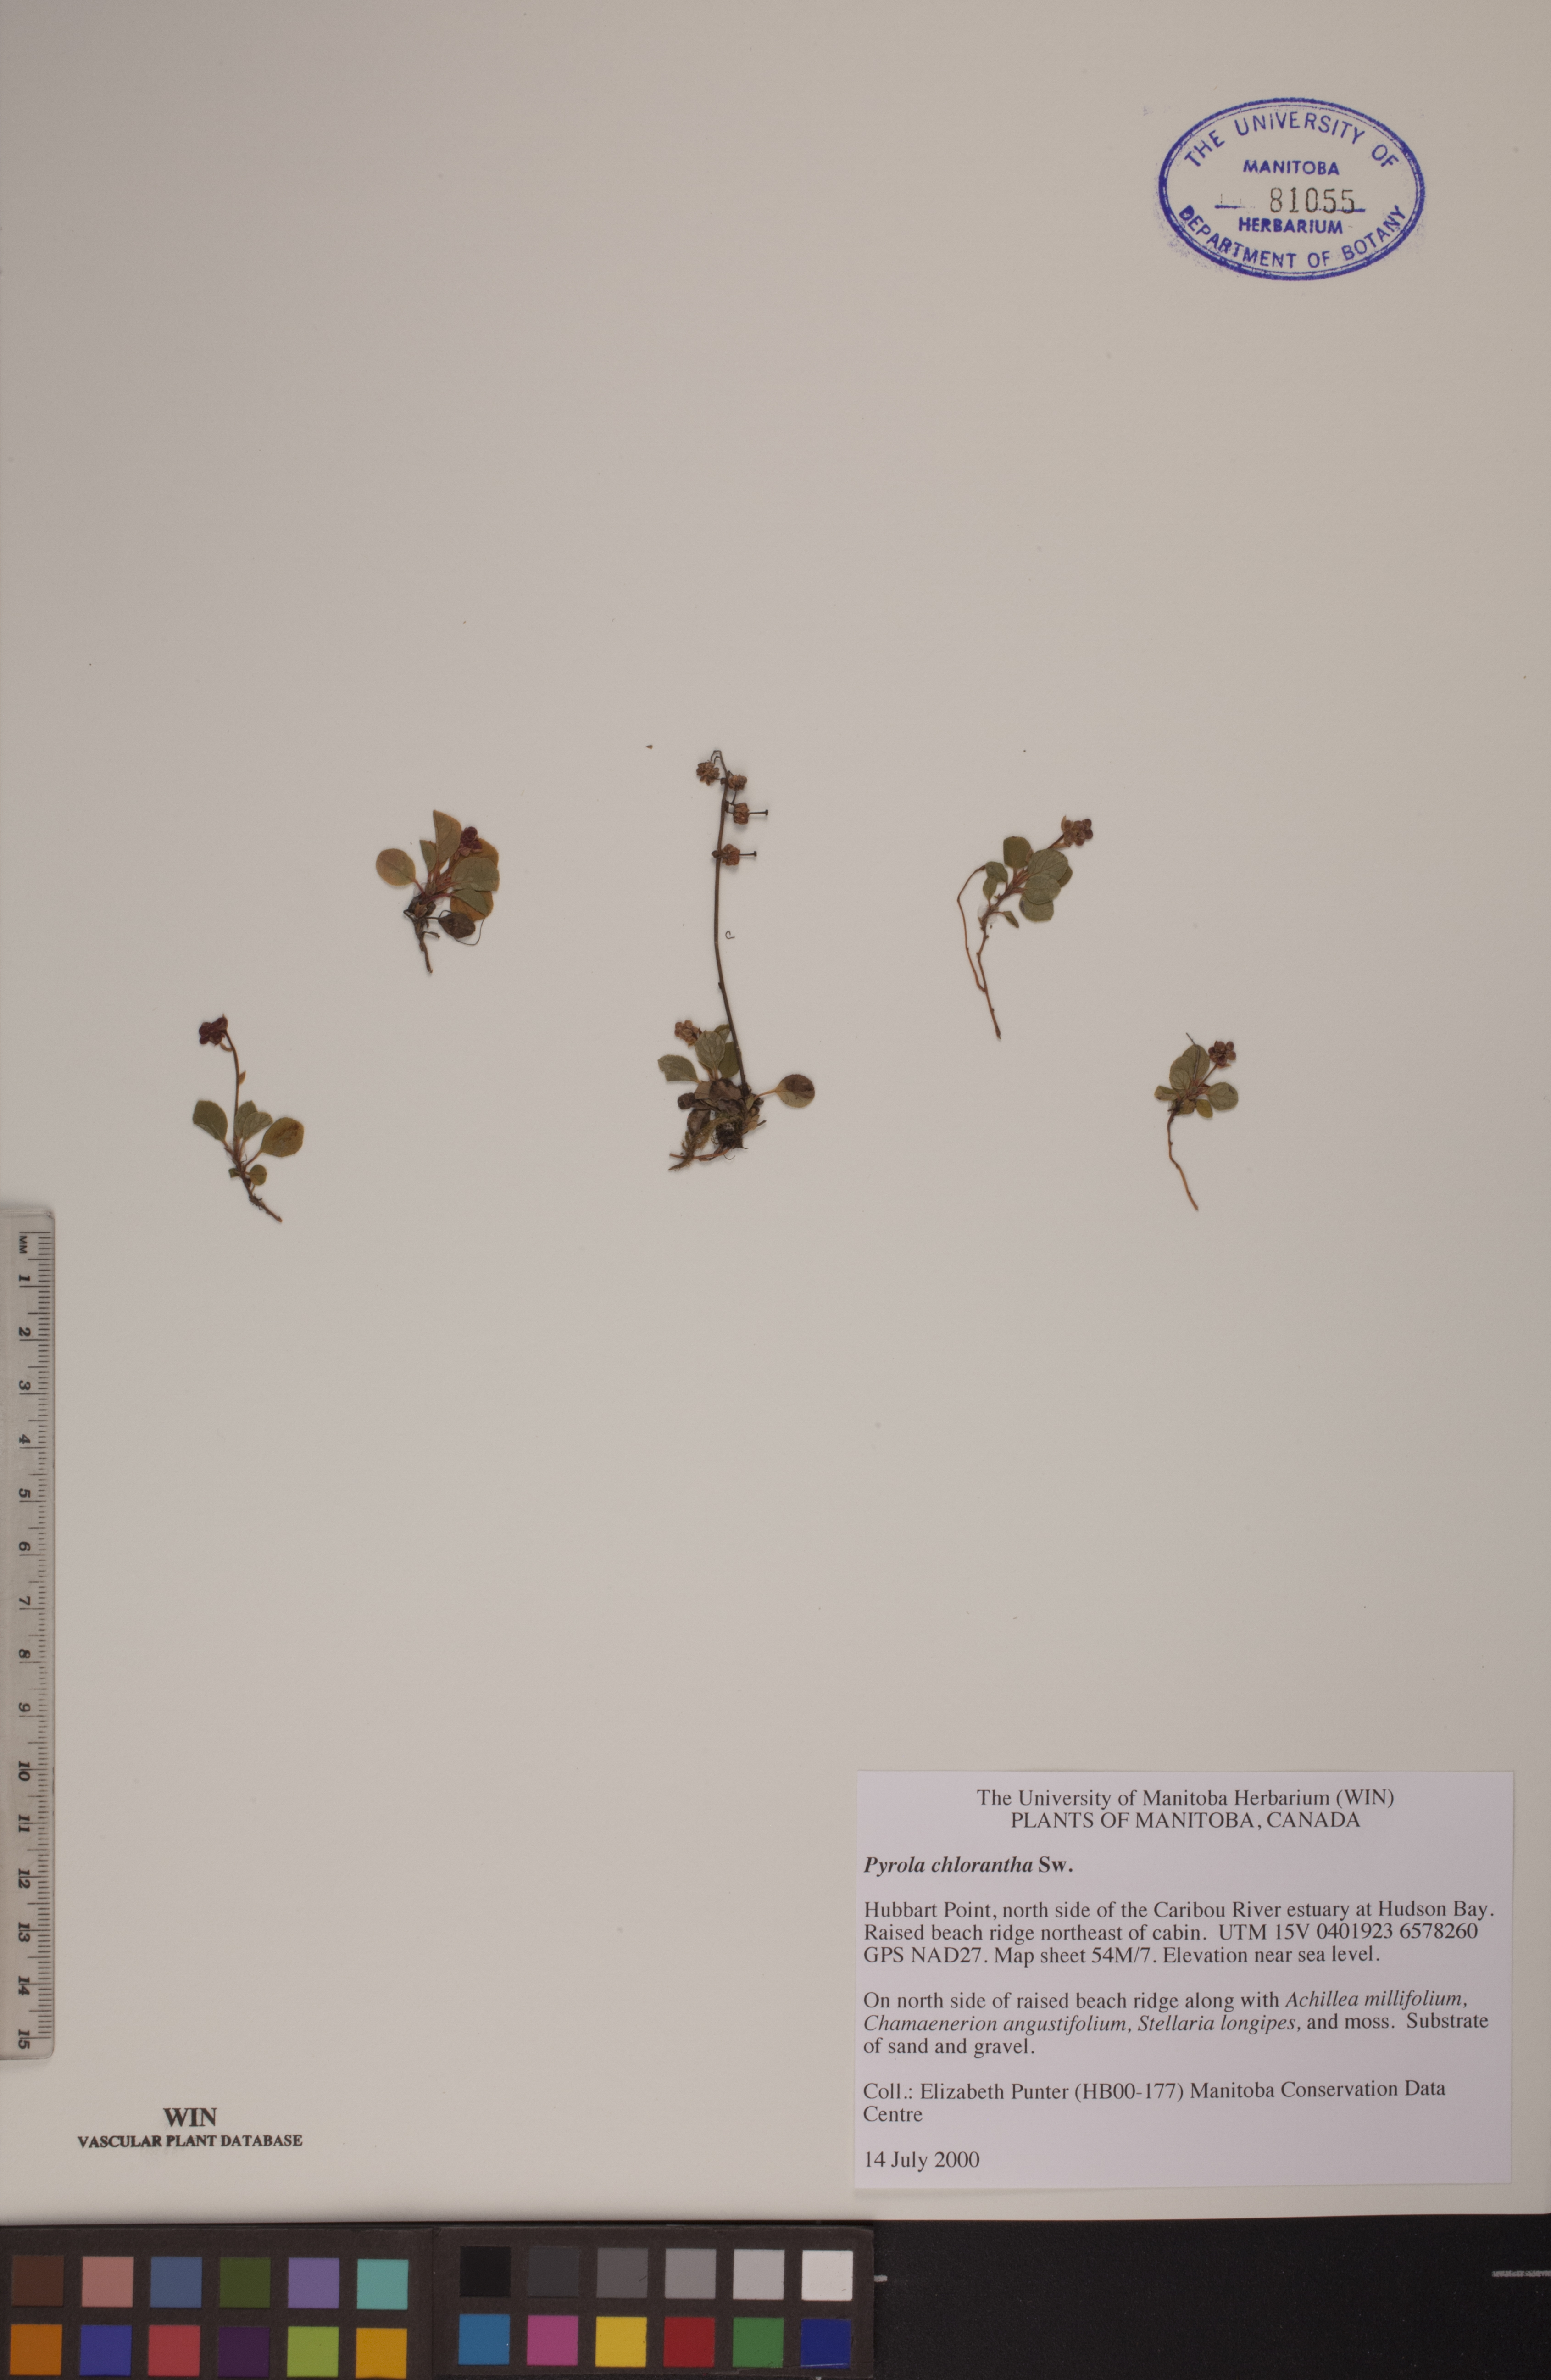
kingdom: Plantae
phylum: Tracheophyta
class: Magnoliopsida
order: Ericales
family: Ericaceae
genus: Pyrola
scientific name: Pyrola chlorantha
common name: Green wintergreen
